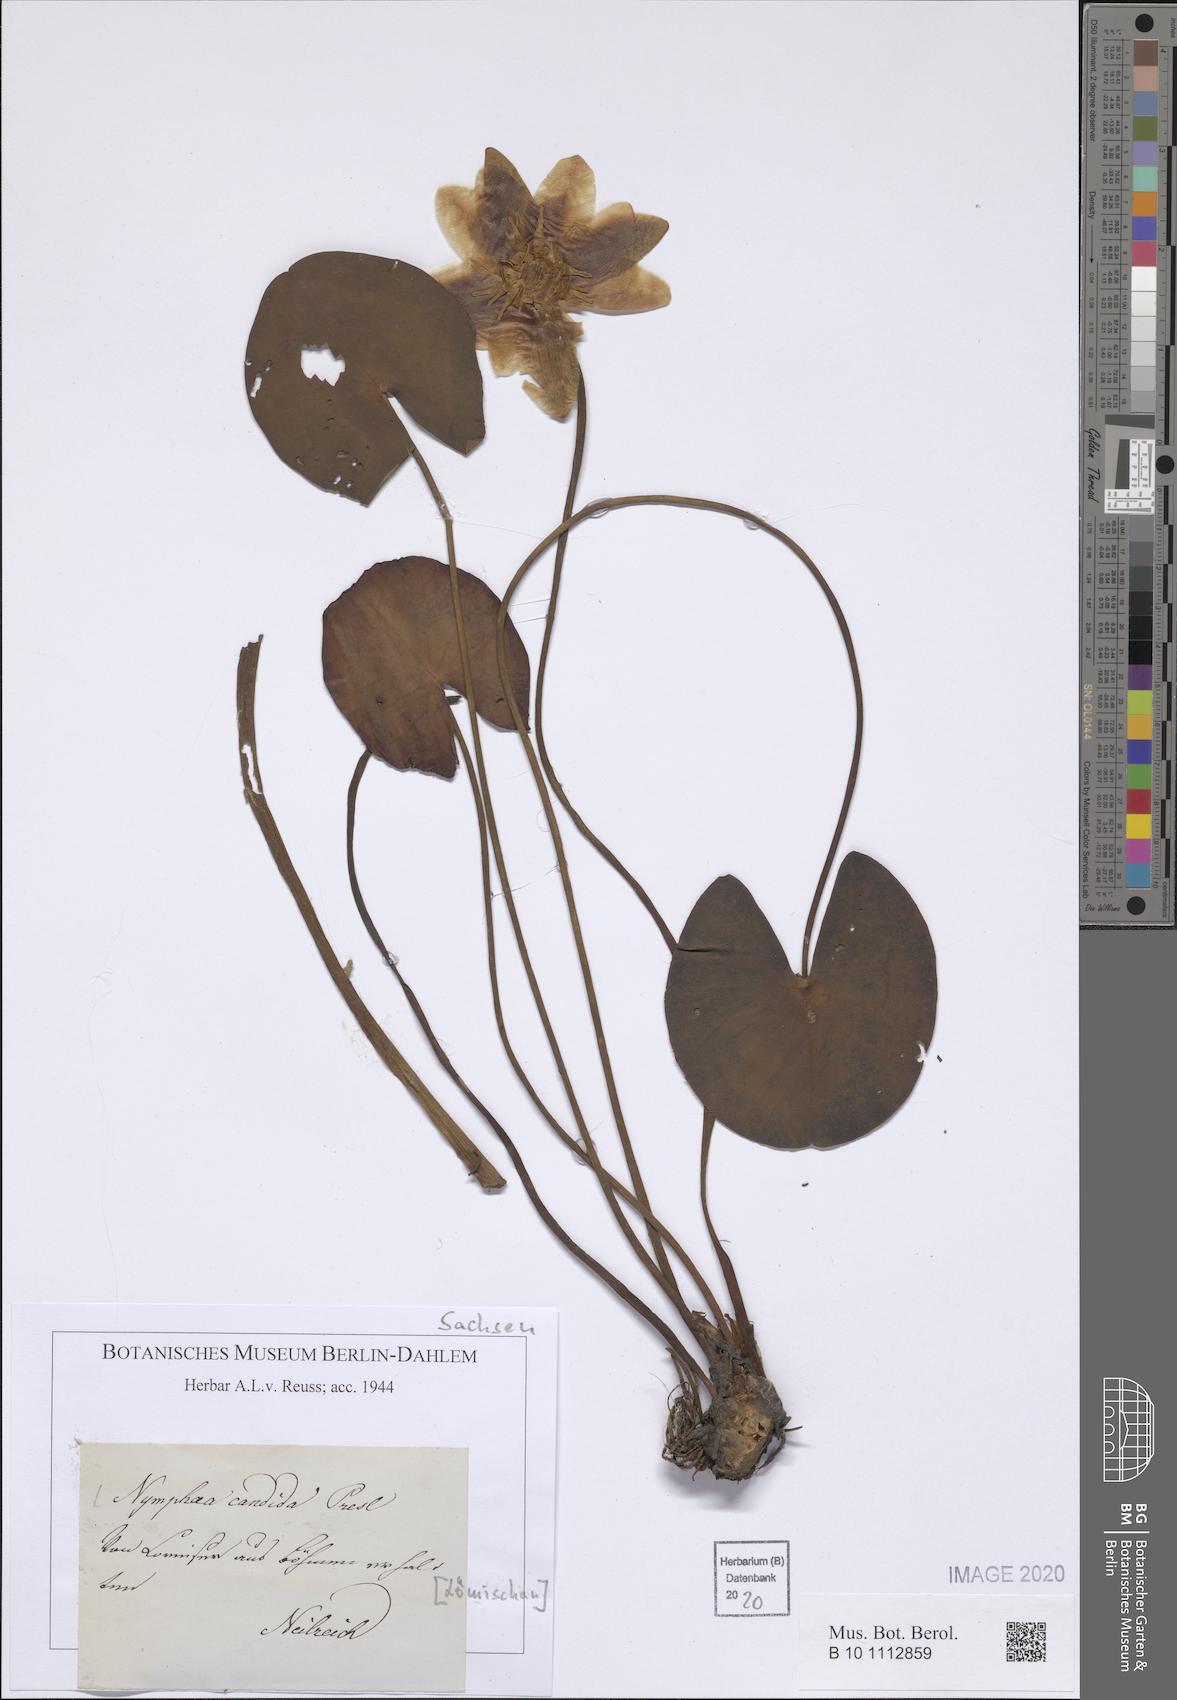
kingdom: Plantae
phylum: Tracheophyta
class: Magnoliopsida
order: Nymphaeales
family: Nymphaeaceae
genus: Nymphaea
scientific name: Nymphaea candida
